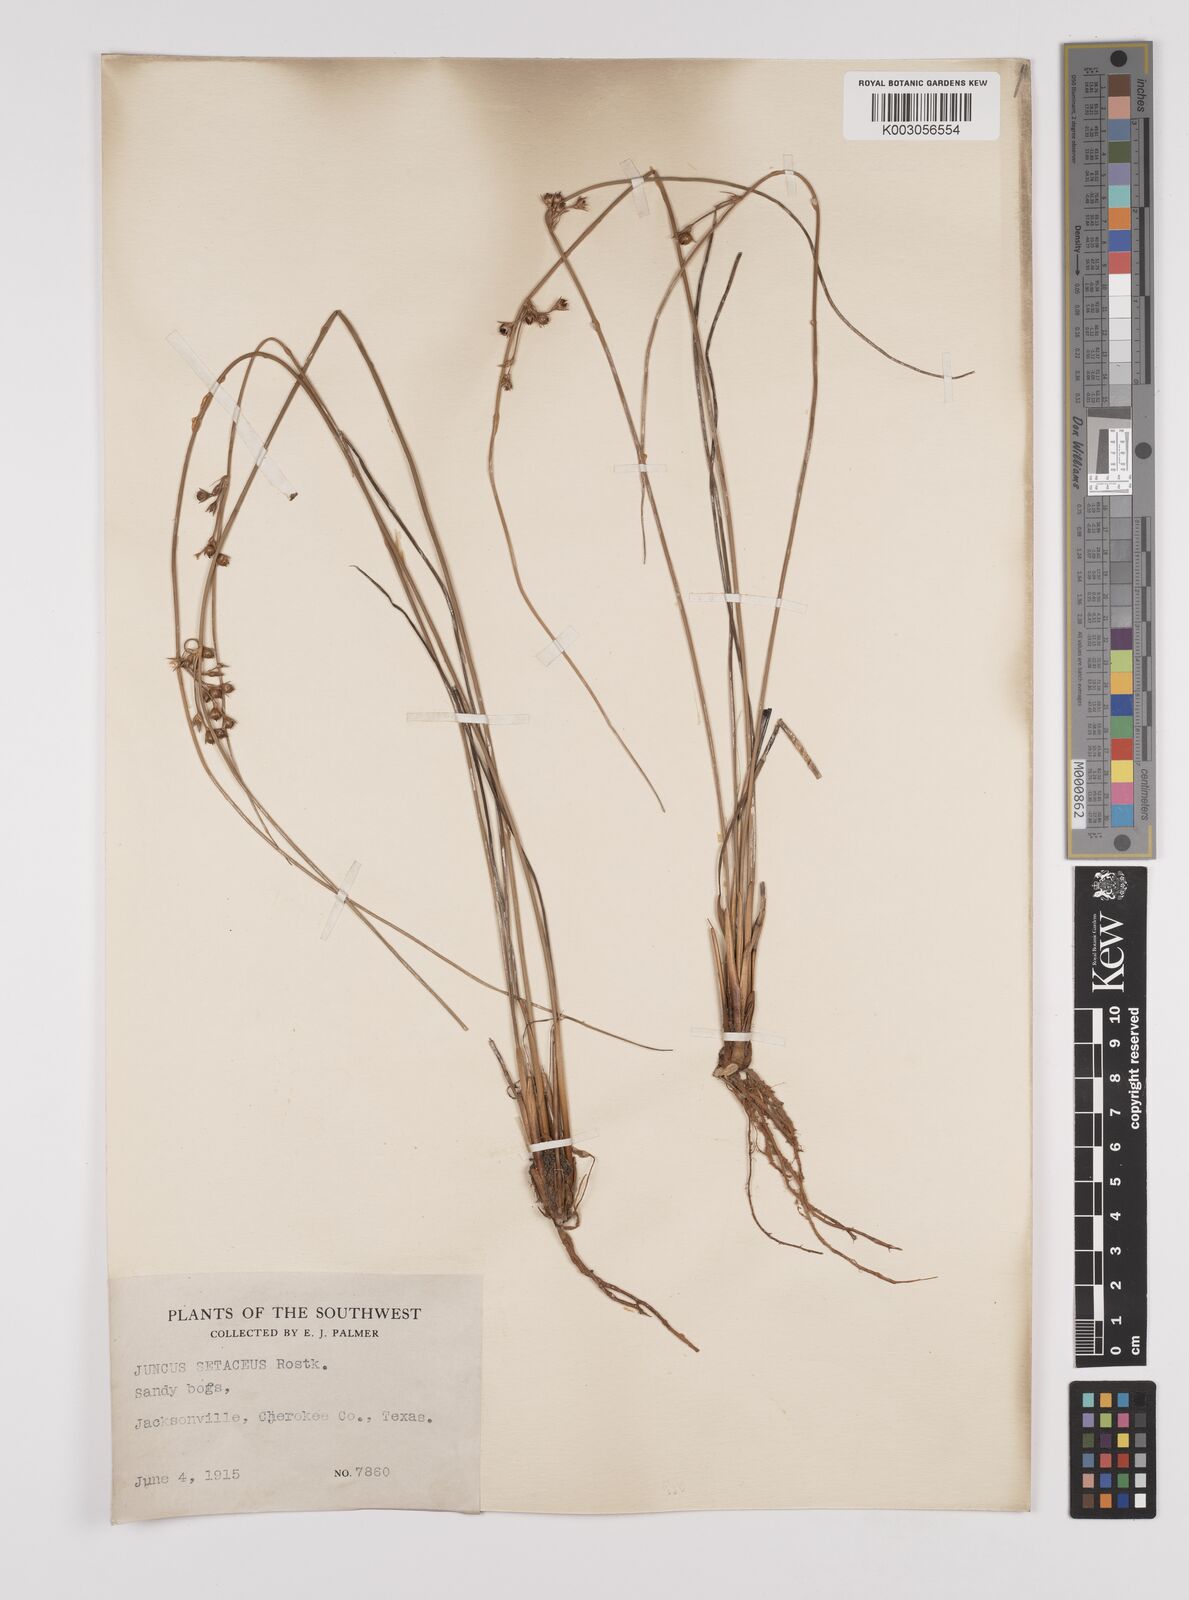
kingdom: Plantae
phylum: Tracheophyta
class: Liliopsida
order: Poales
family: Juncaceae
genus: Juncus
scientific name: Juncus balticus
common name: Baltic rush
